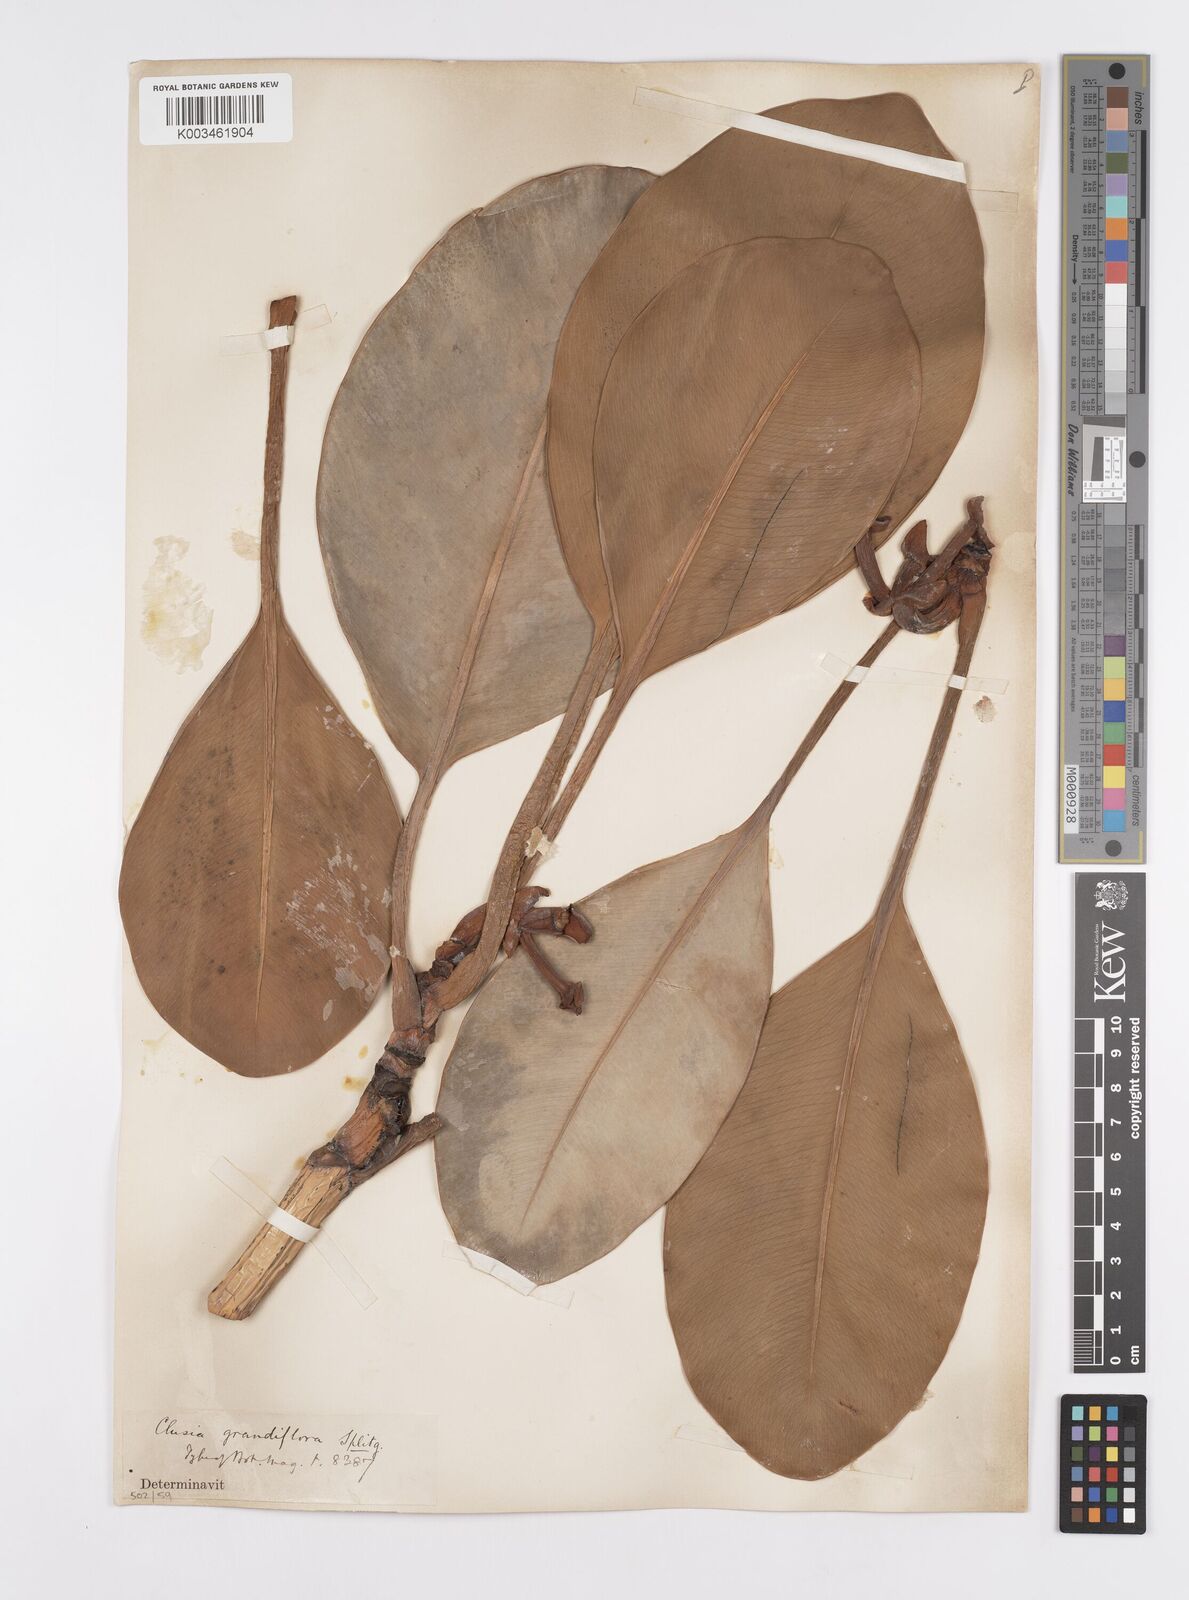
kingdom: Plantae
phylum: Tracheophyta
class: Magnoliopsida
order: Malpighiales
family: Clusiaceae
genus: Clusia
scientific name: Clusia grandiflora
